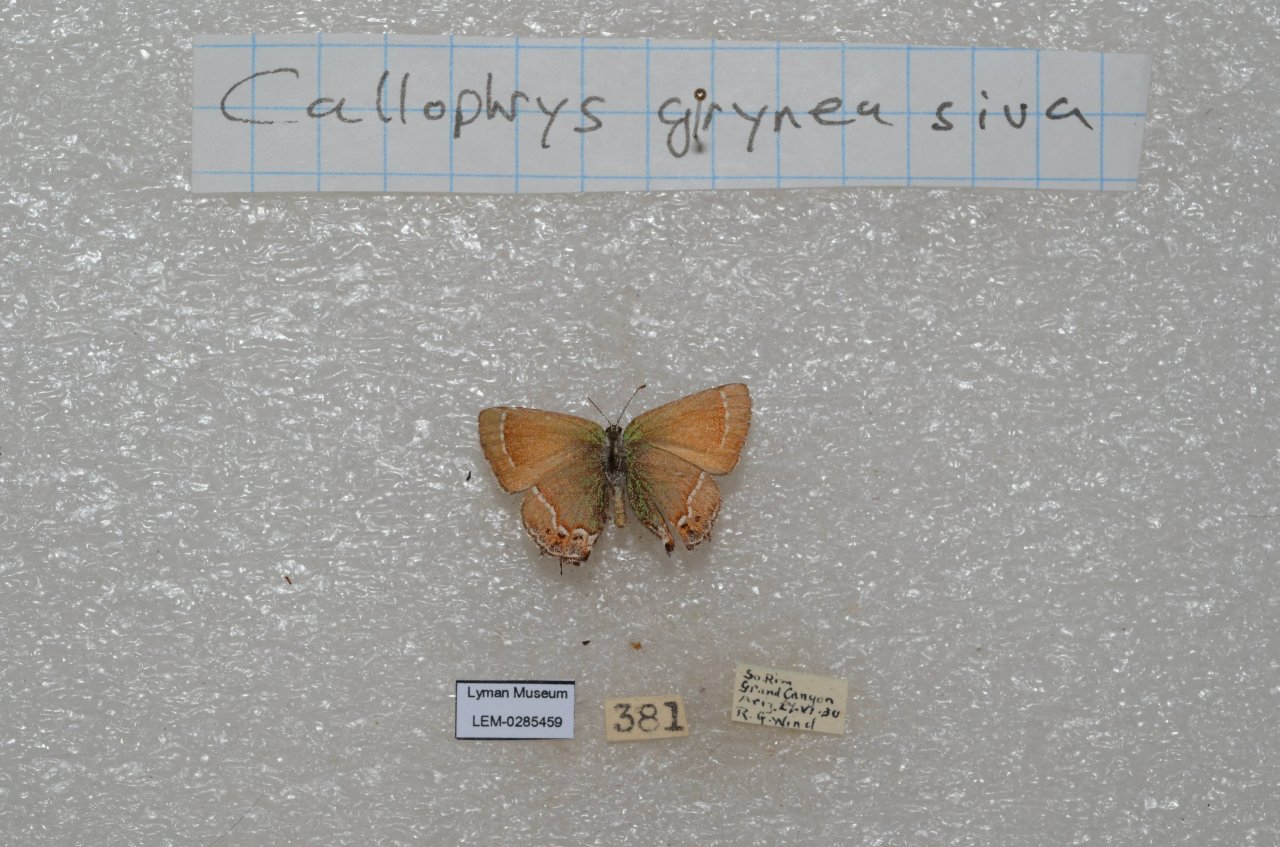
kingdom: Animalia
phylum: Arthropoda
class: Insecta
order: Lepidoptera
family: Lycaenidae
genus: Mitoura
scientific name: Mitoura gryneus
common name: Juniper Hairstreak
